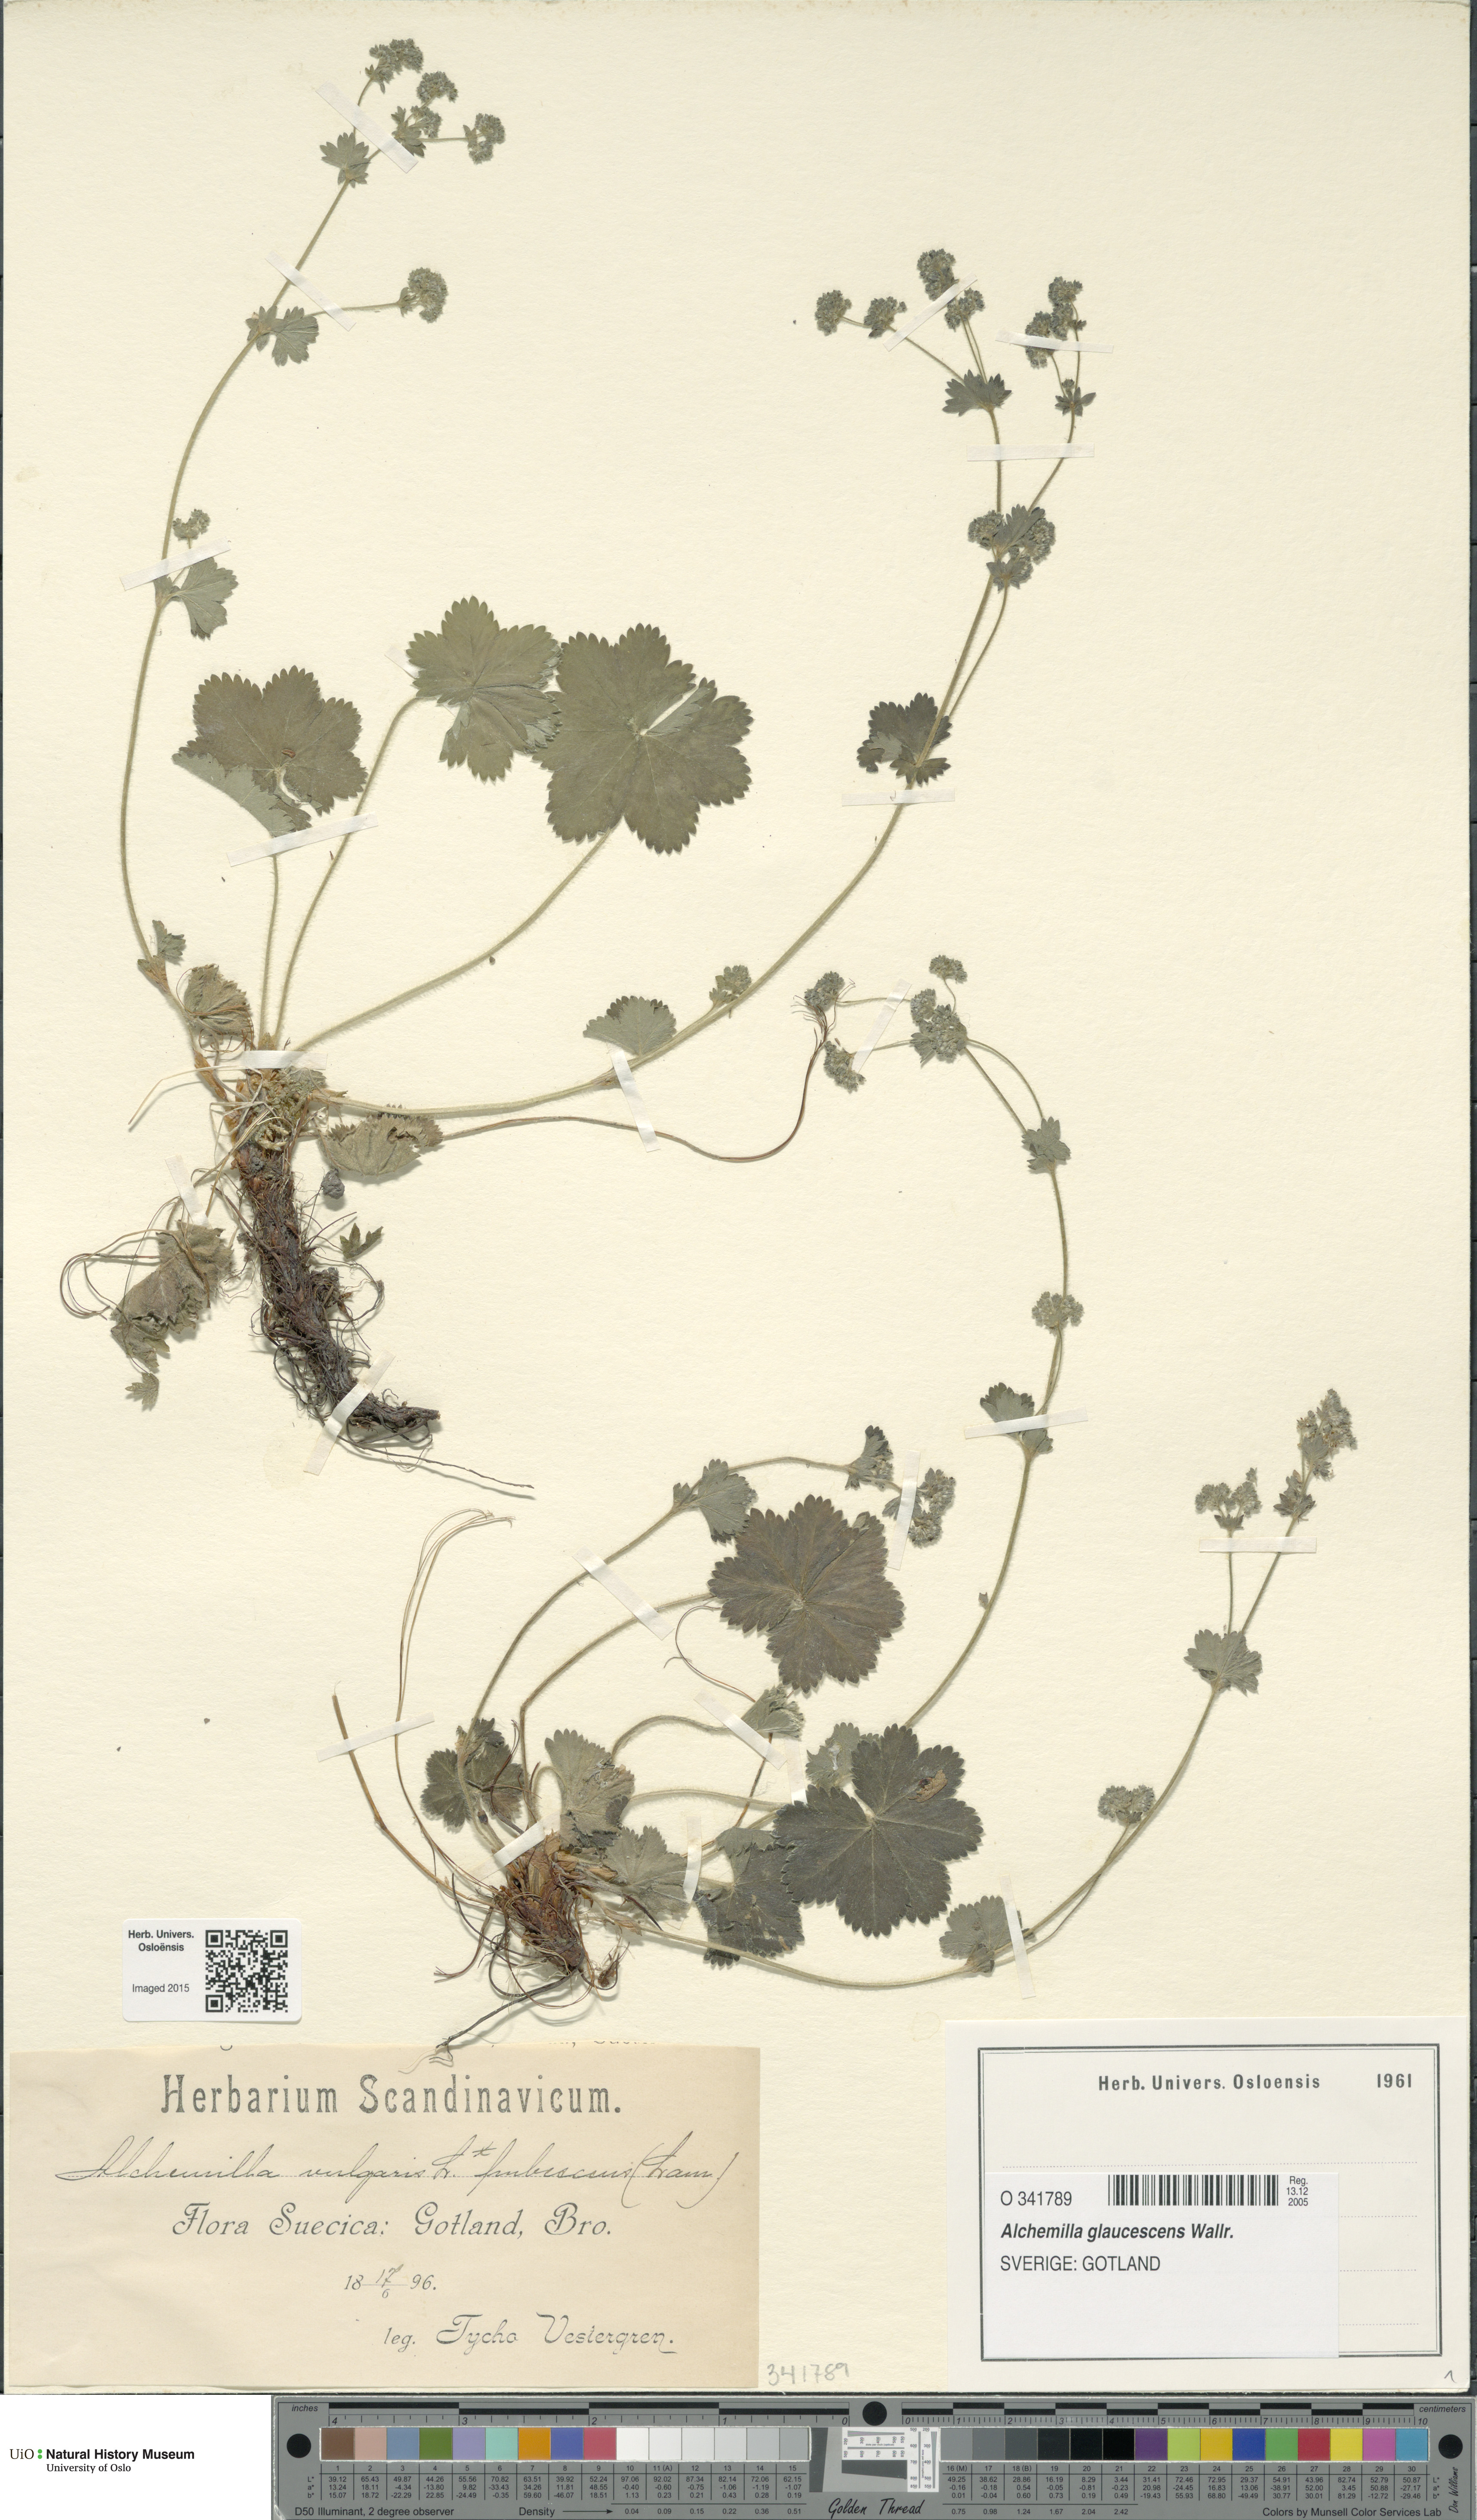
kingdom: Plantae
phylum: Tracheophyta
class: Magnoliopsida
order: Rosales
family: Rosaceae
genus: Alchemilla
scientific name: Alchemilla glaucescens
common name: Silky lady's mantle
